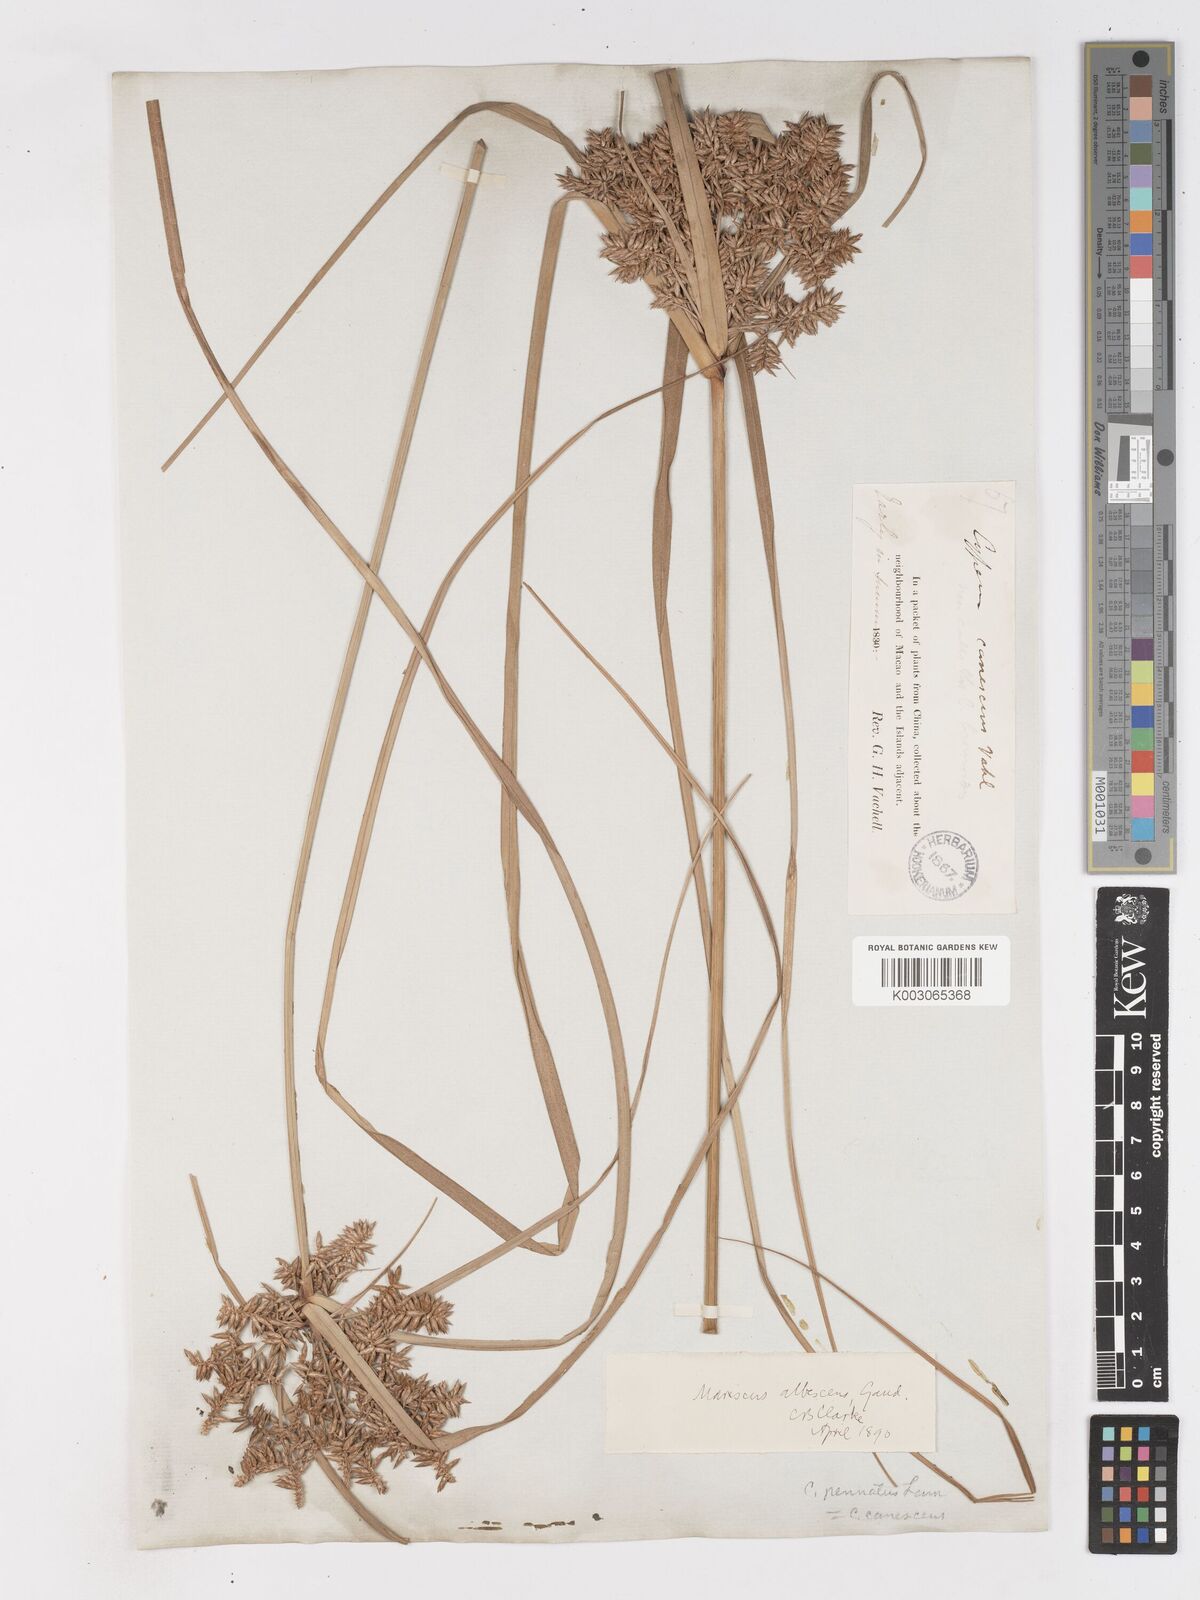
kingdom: Plantae
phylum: Tracheophyta
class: Liliopsida
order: Poales
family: Cyperaceae
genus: Cyperus
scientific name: Cyperus javanicus
